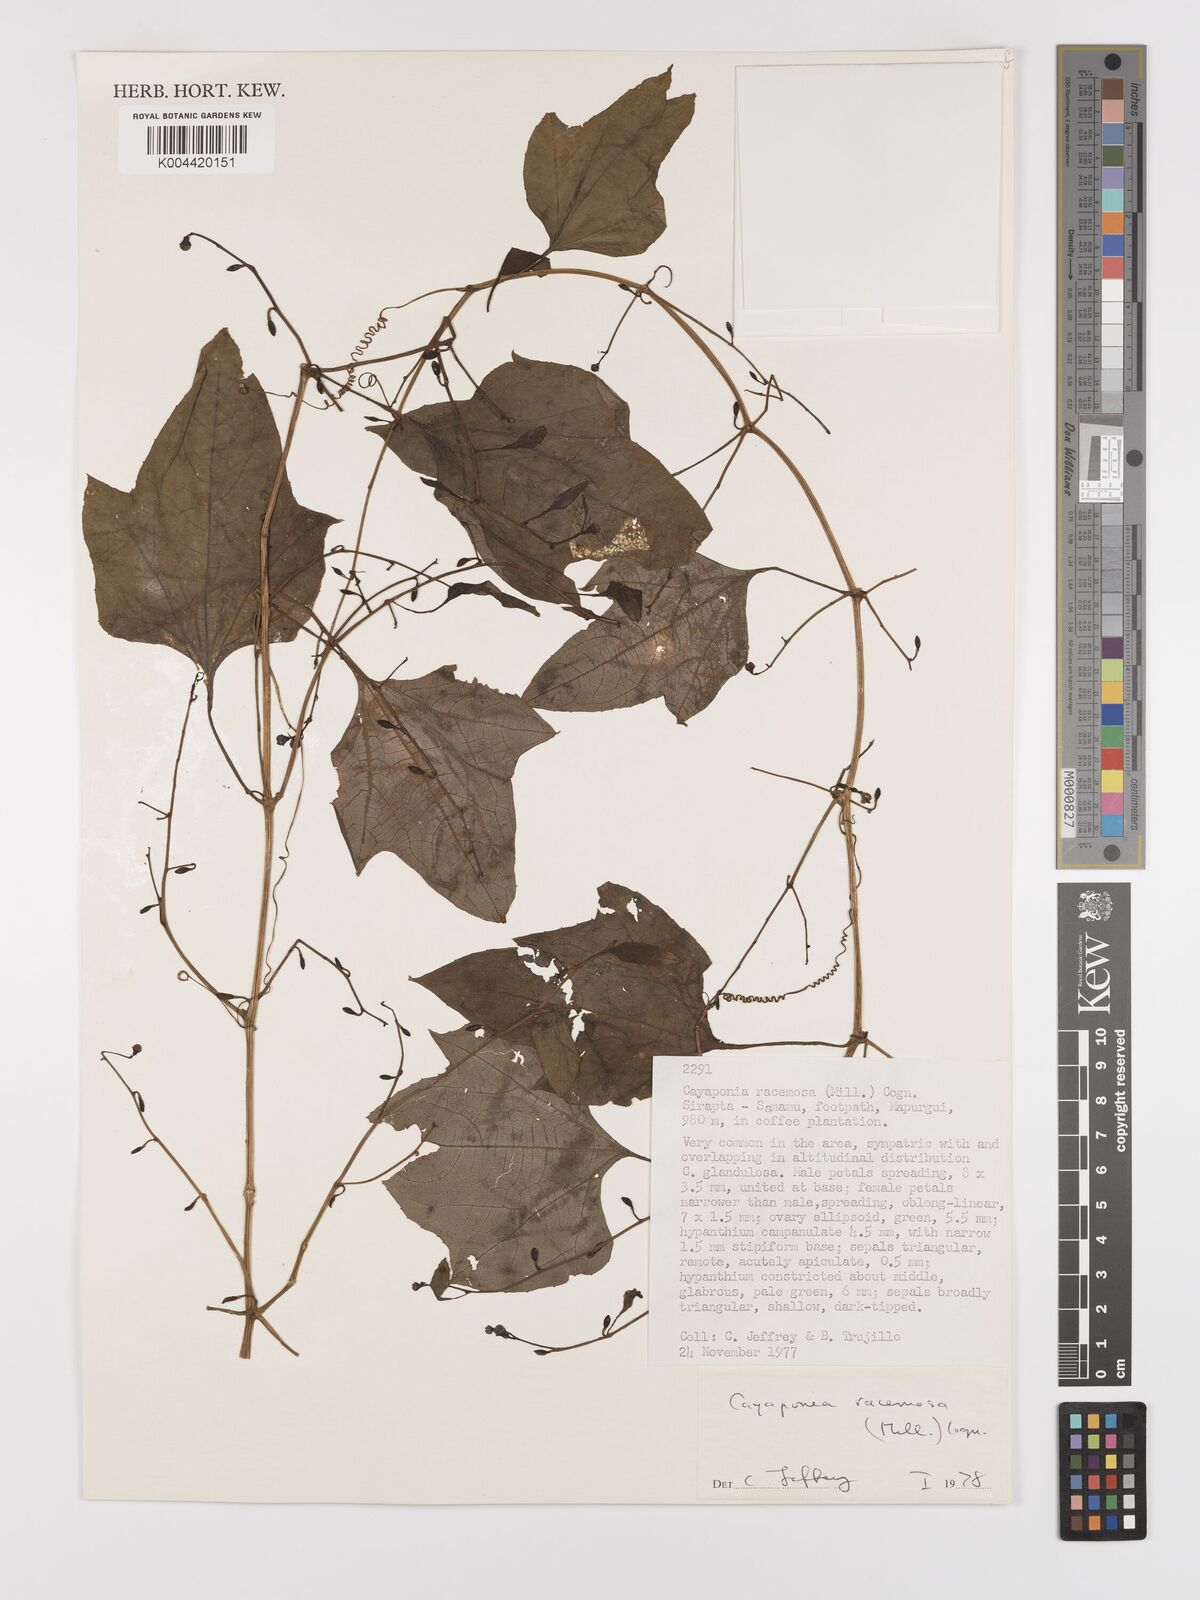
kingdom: Plantae
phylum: Tracheophyta
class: Magnoliopsida
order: Cucurbitales
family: Cucurbitaceae
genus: Cayaponia
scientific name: Cayaponia racemosa
